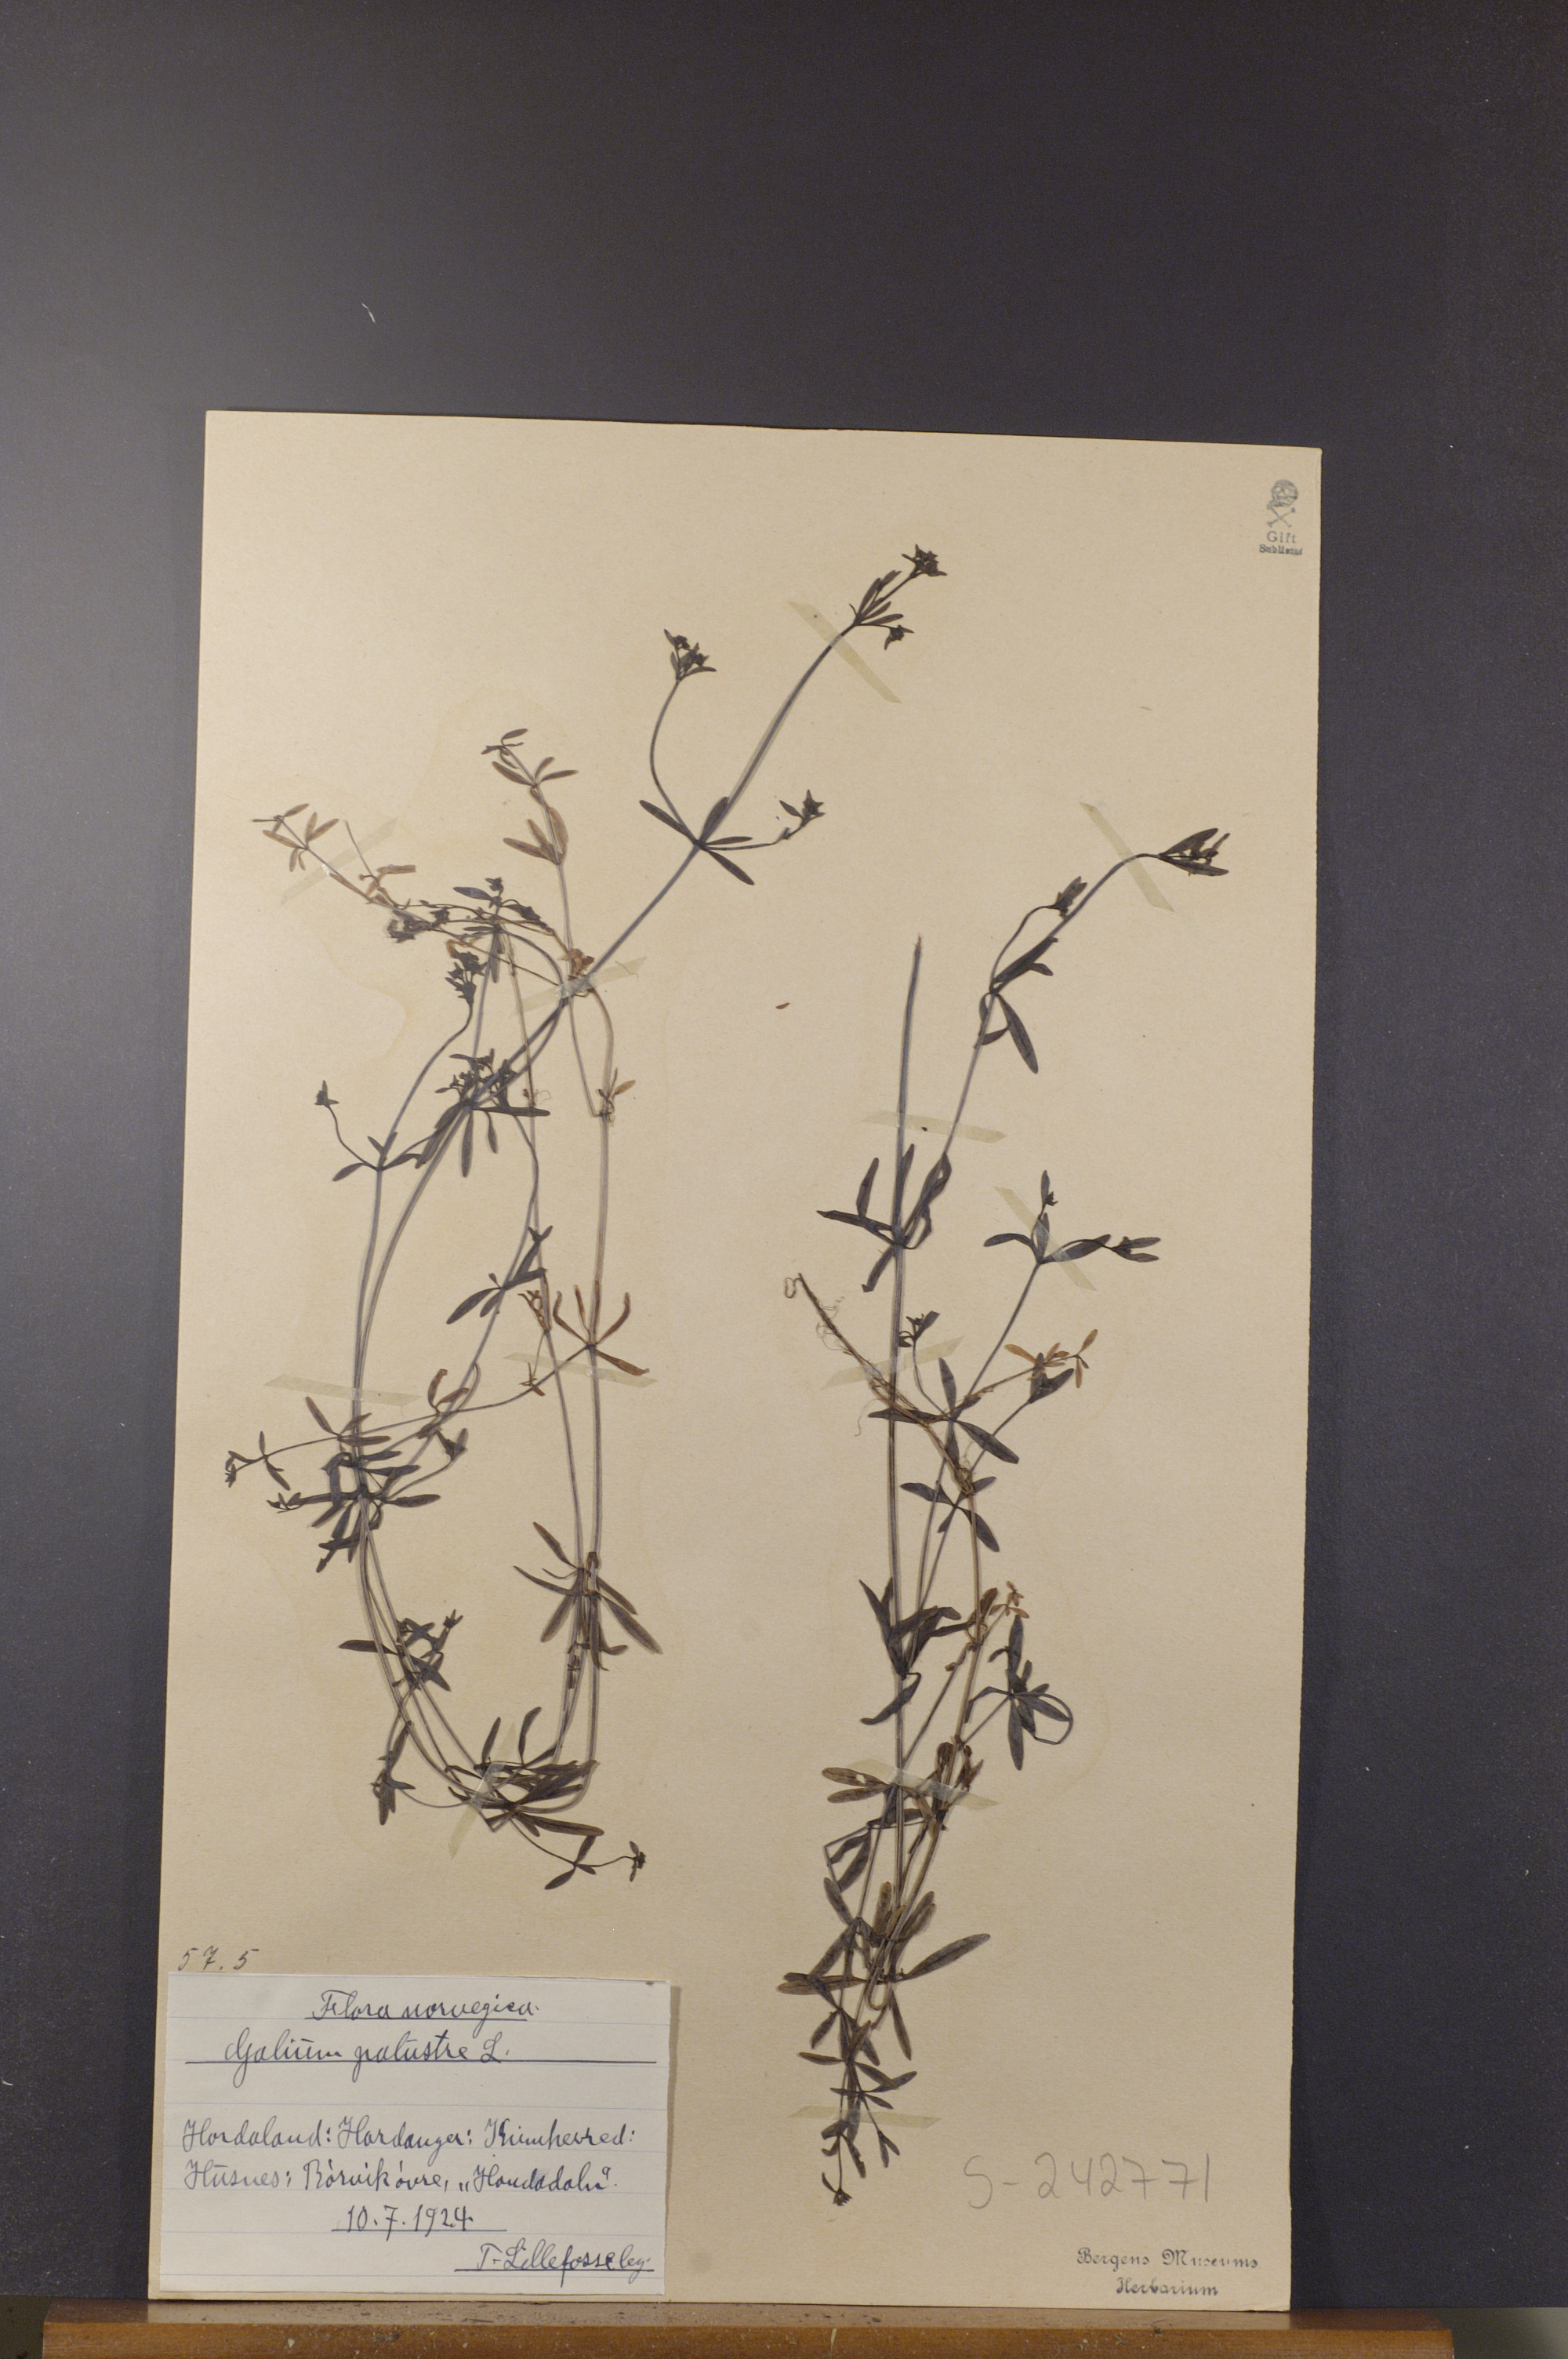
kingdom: Plantae
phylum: Tracheophyta
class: Magnoliopsida
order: Gentianales
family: Rubiaceae
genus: Galium
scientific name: Galium palustre
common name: Common marsh-bedstraw
